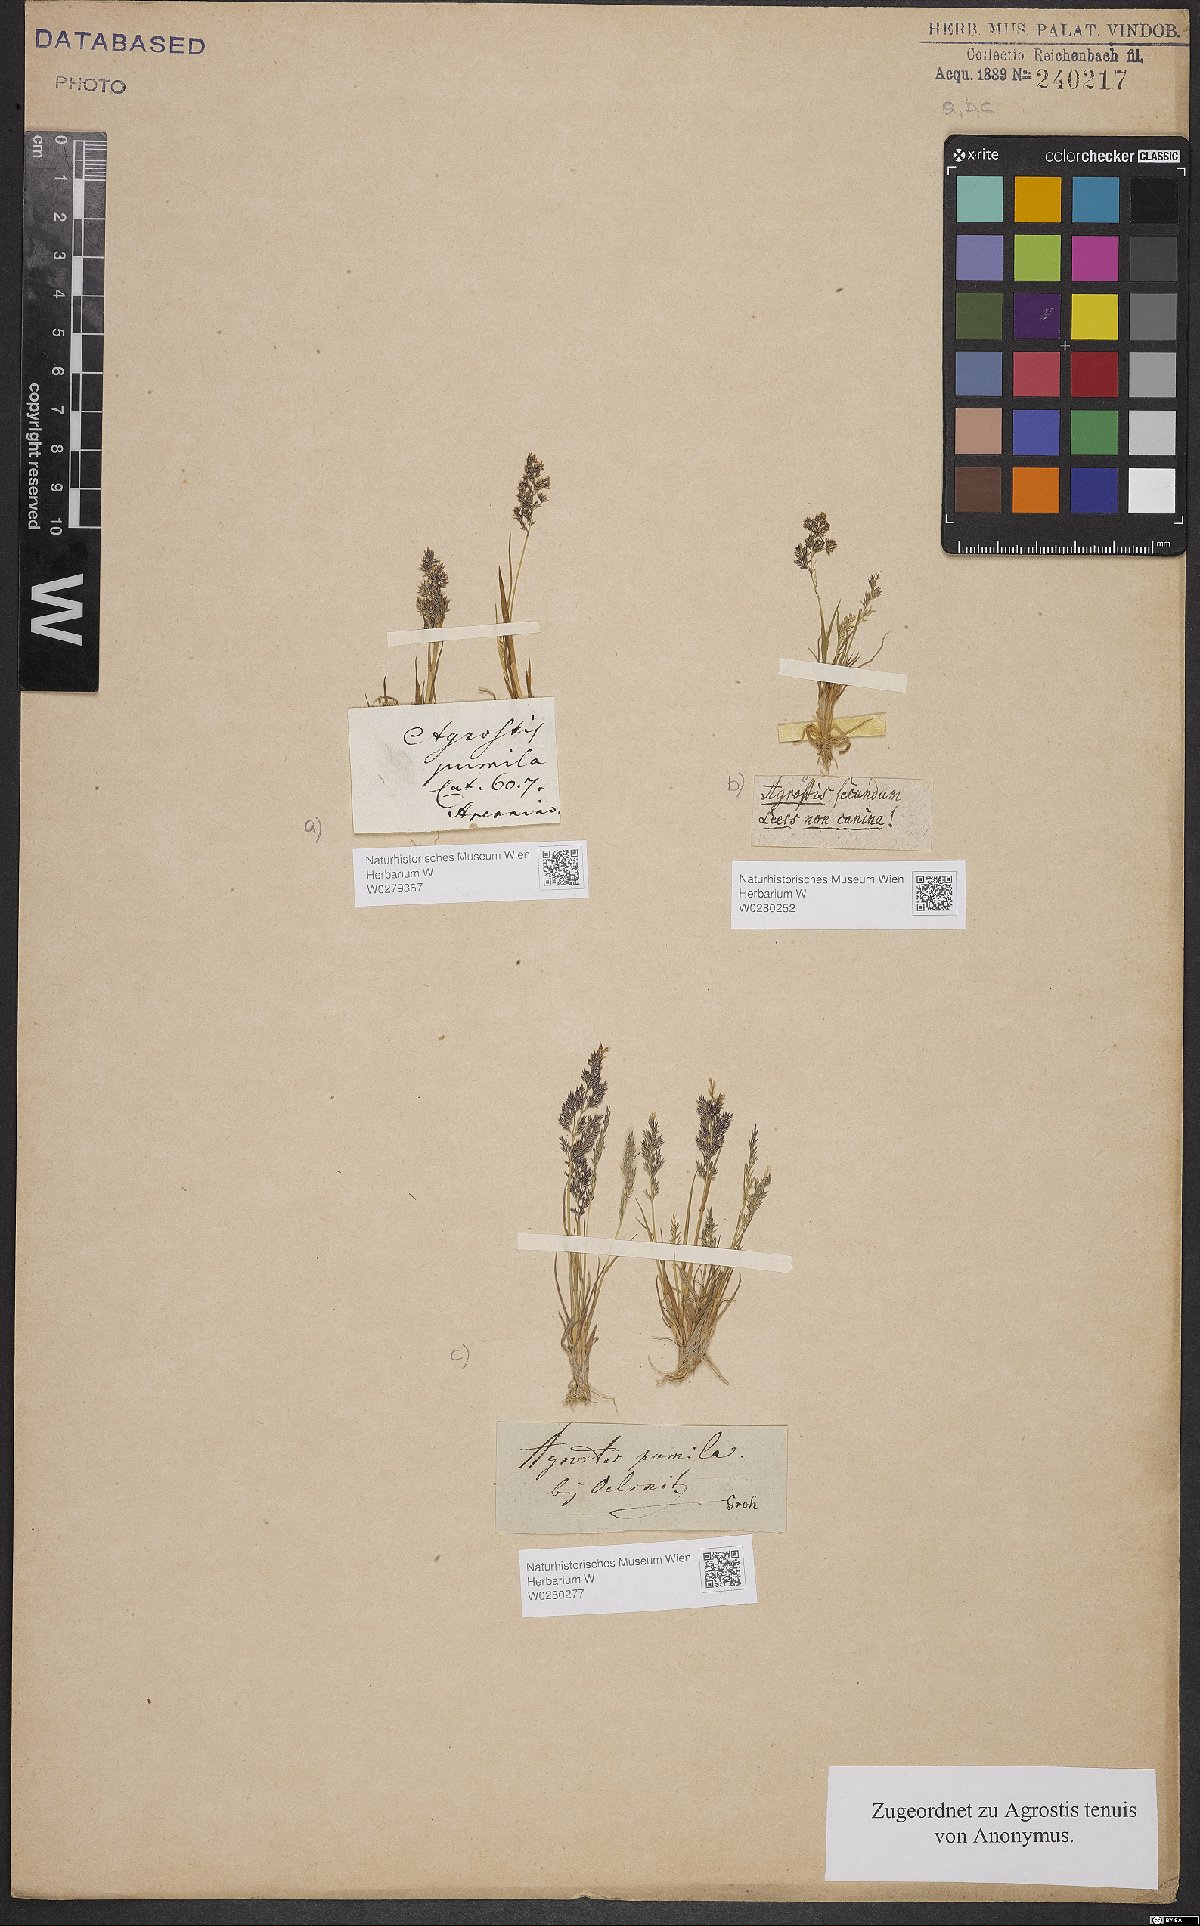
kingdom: Plantae
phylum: Tracheophyta
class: Liliopsida
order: Poales
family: Poaceae
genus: Agrostis
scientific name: Agrostis capillaris
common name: Colonial bentgrass
